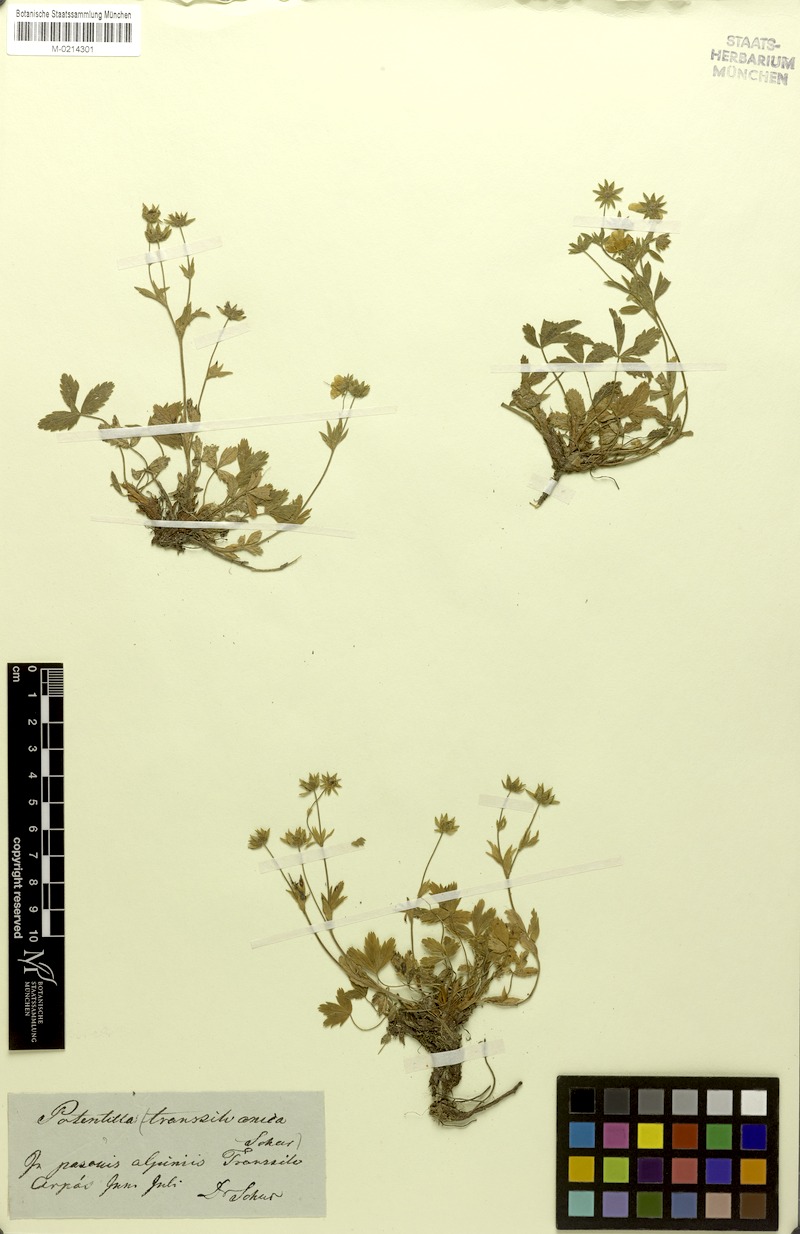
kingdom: Plantae
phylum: Tracheophyta
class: Magnoliopsida
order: Rosales
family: Rosaceae
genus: Potentilla
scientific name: Potentilla aurea
